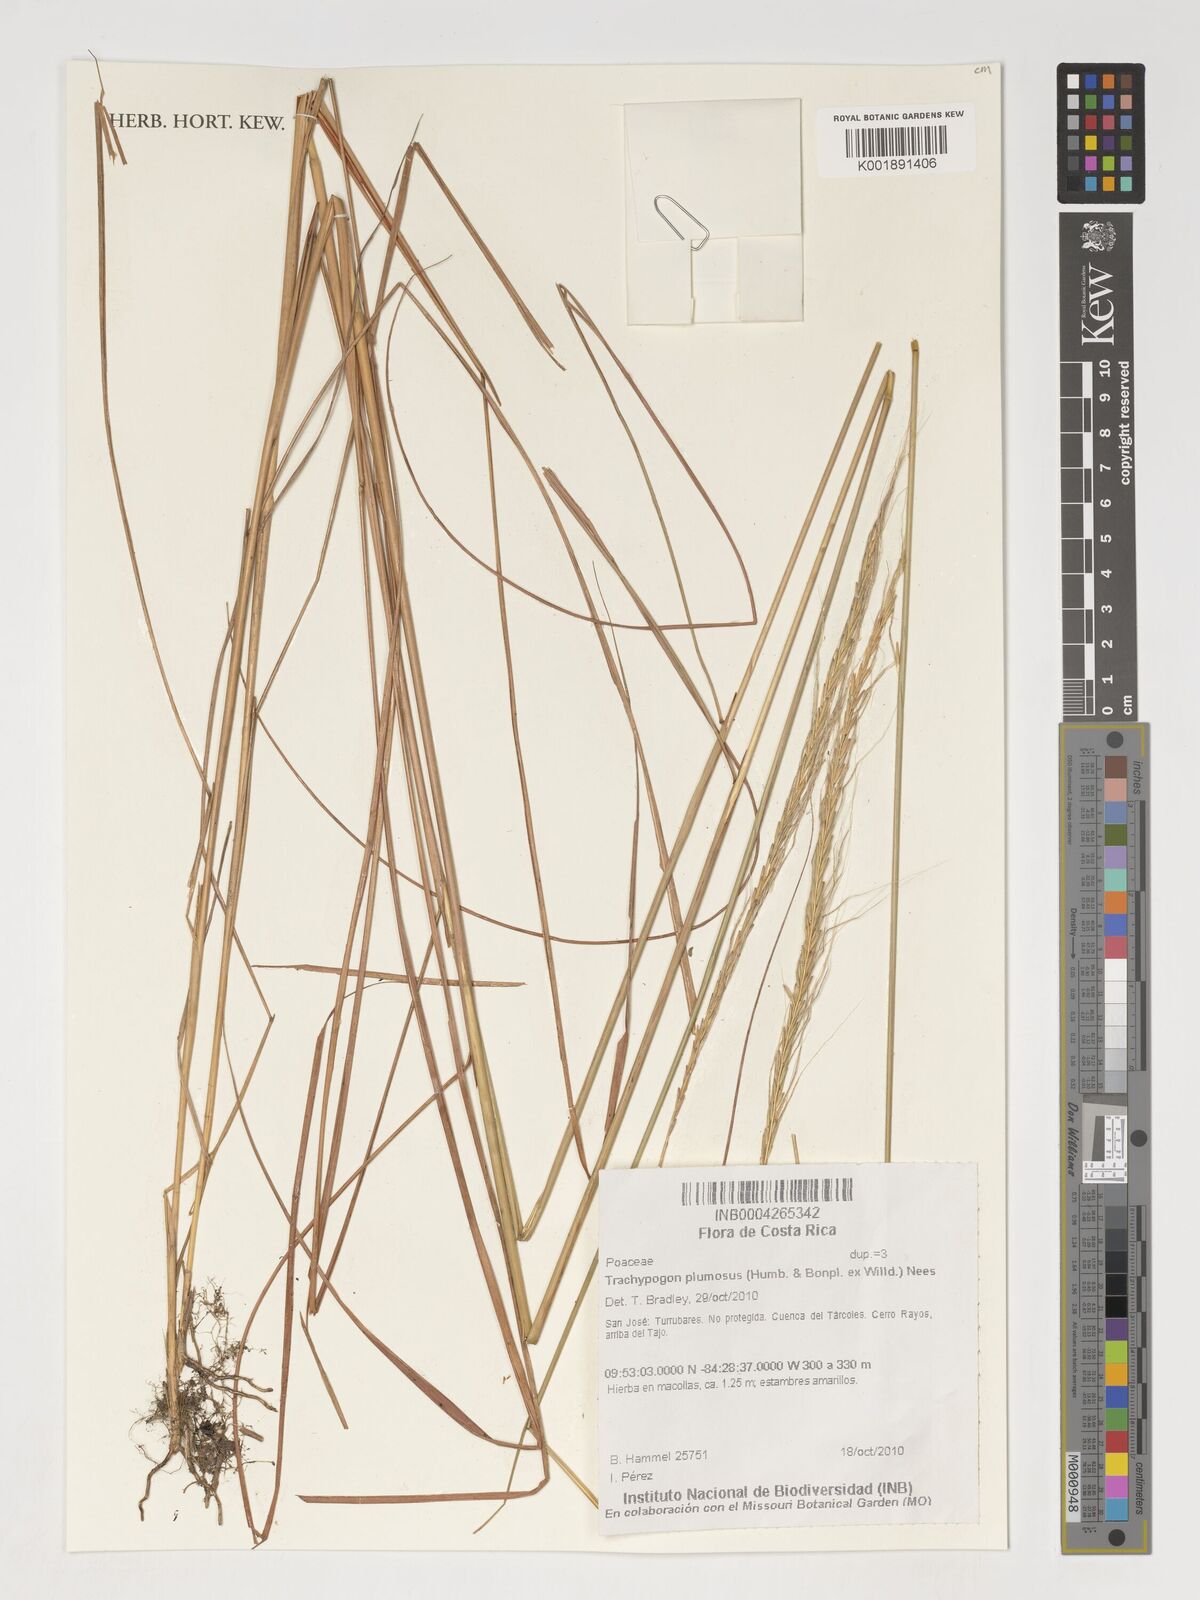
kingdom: Plantae
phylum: Tracheophyta
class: Liliopsida
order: Poales
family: Poaceae
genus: Trachypogon
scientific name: Trachypogon spicatus
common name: Crinkle-awn
